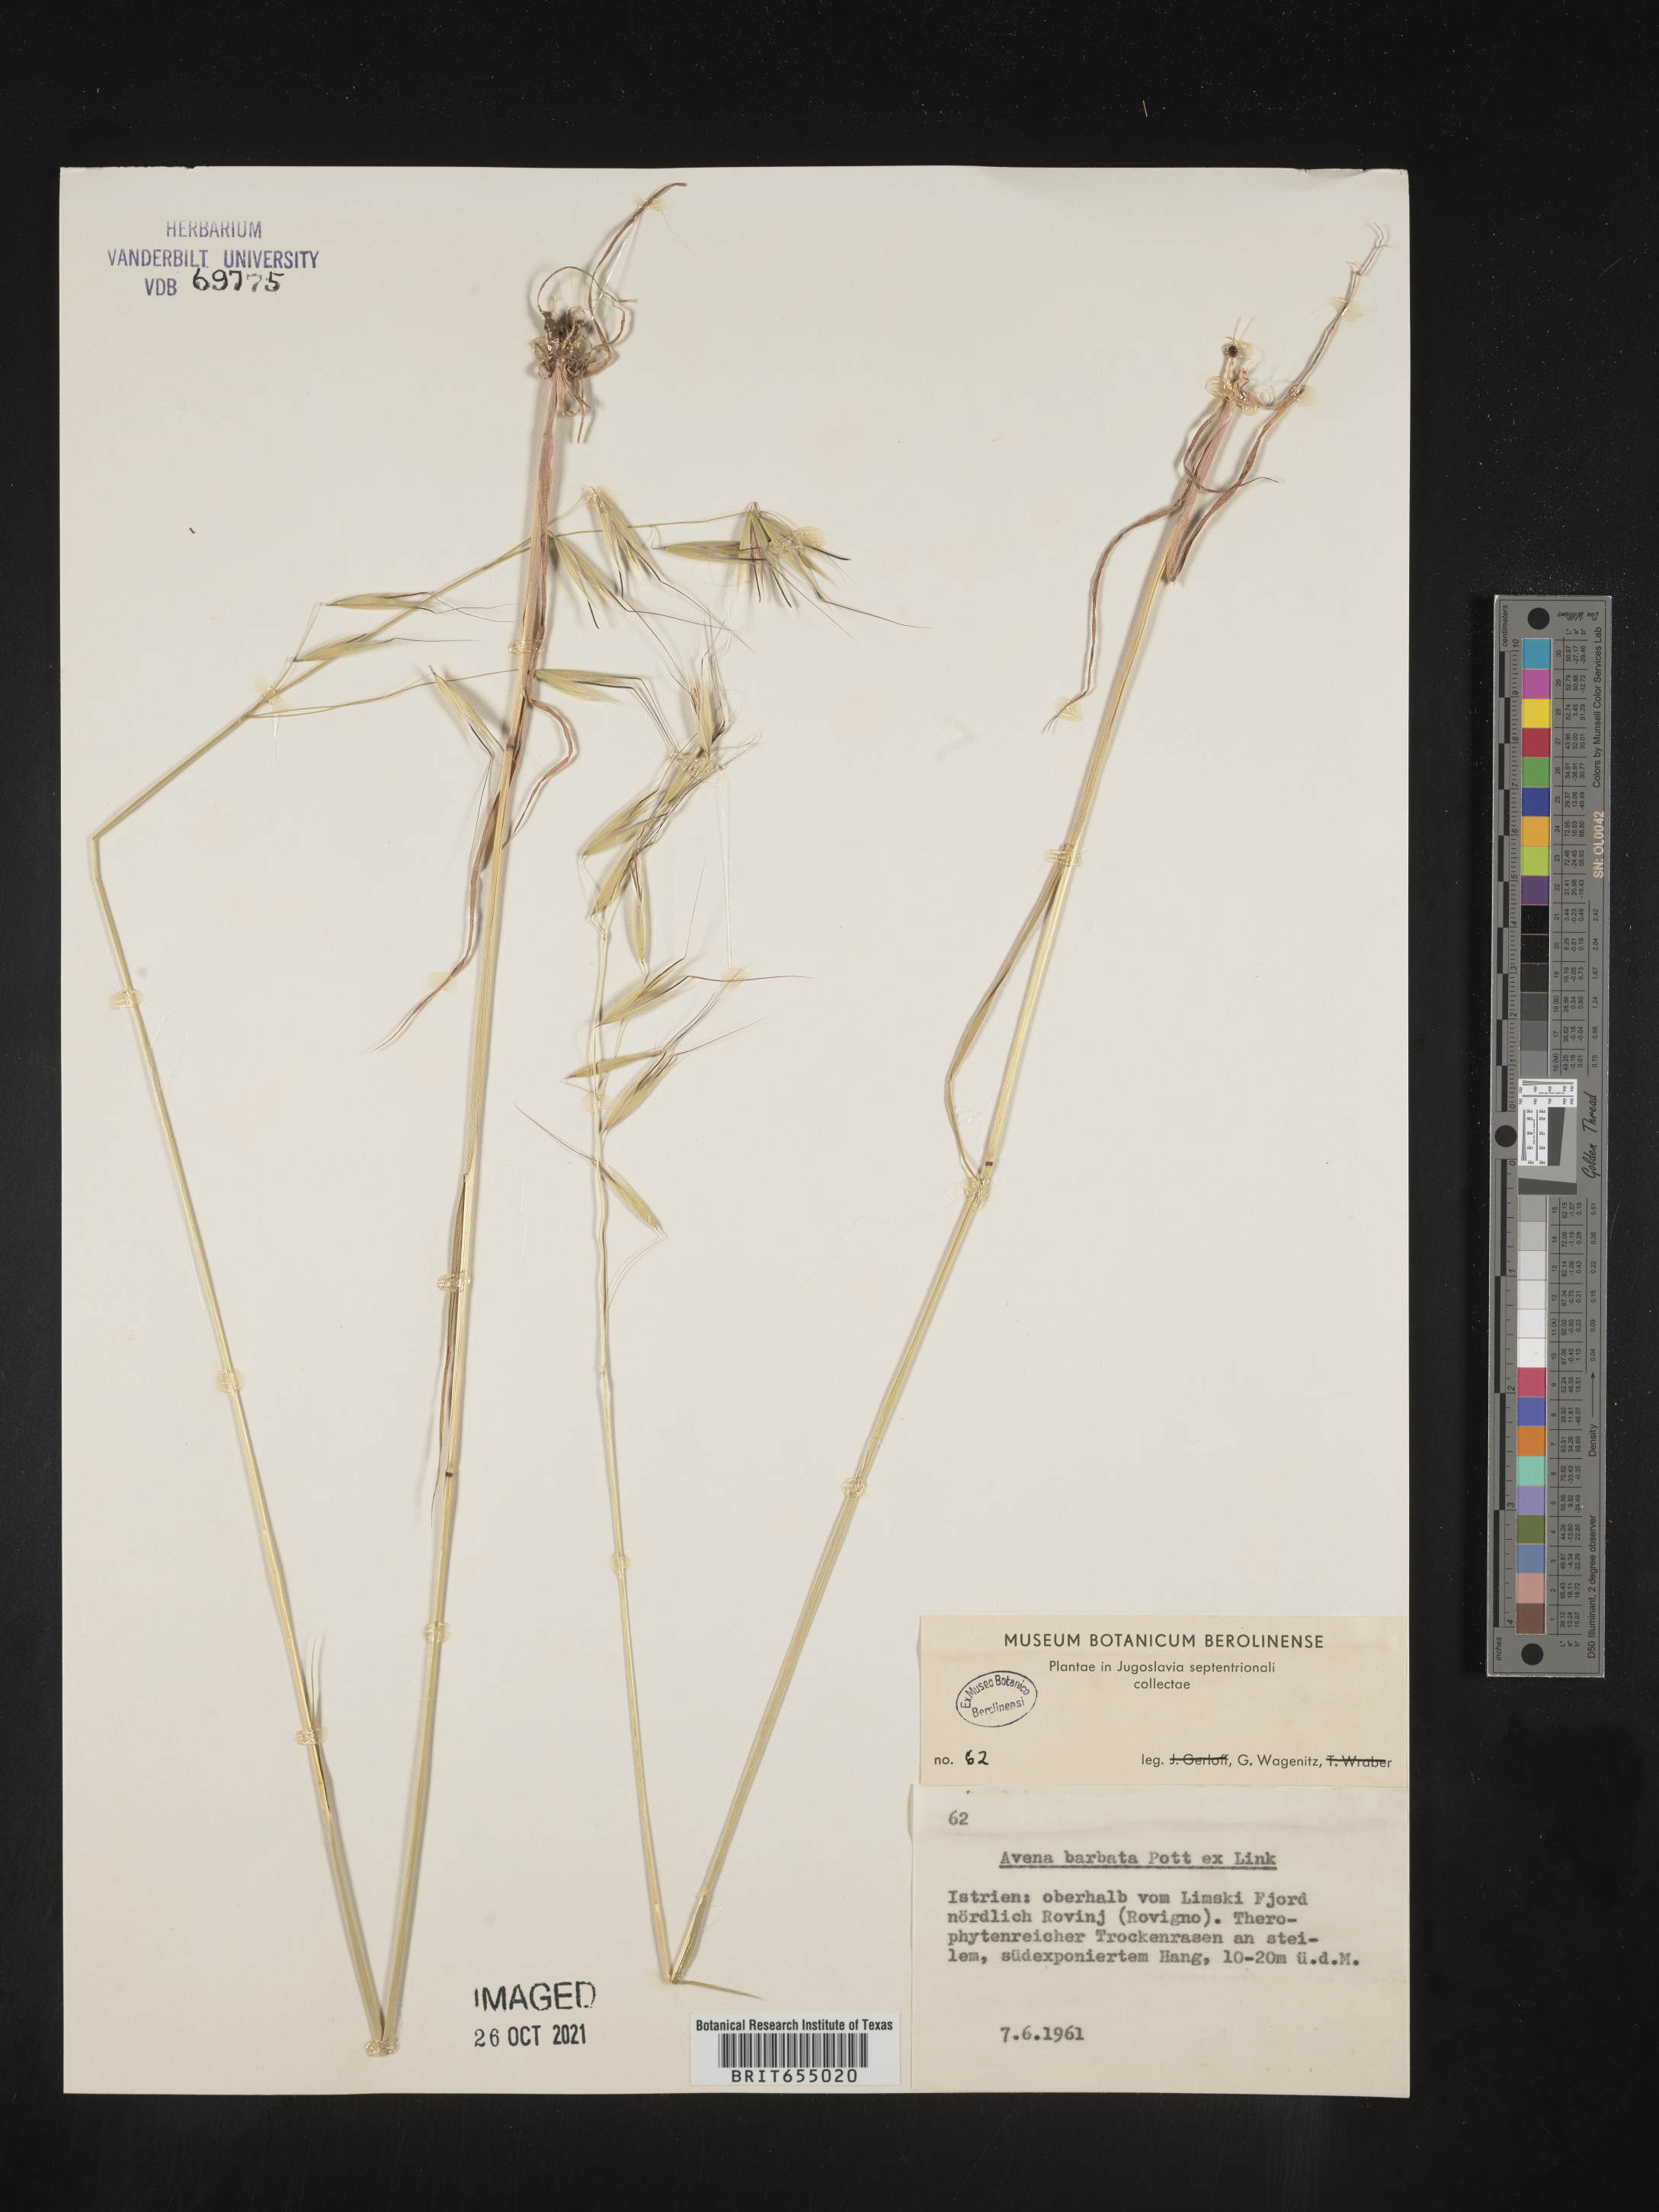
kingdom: Plantae
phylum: Tracheophyta
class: Liliopsida
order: Poales
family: Poaceae
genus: Avena
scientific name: Avena
